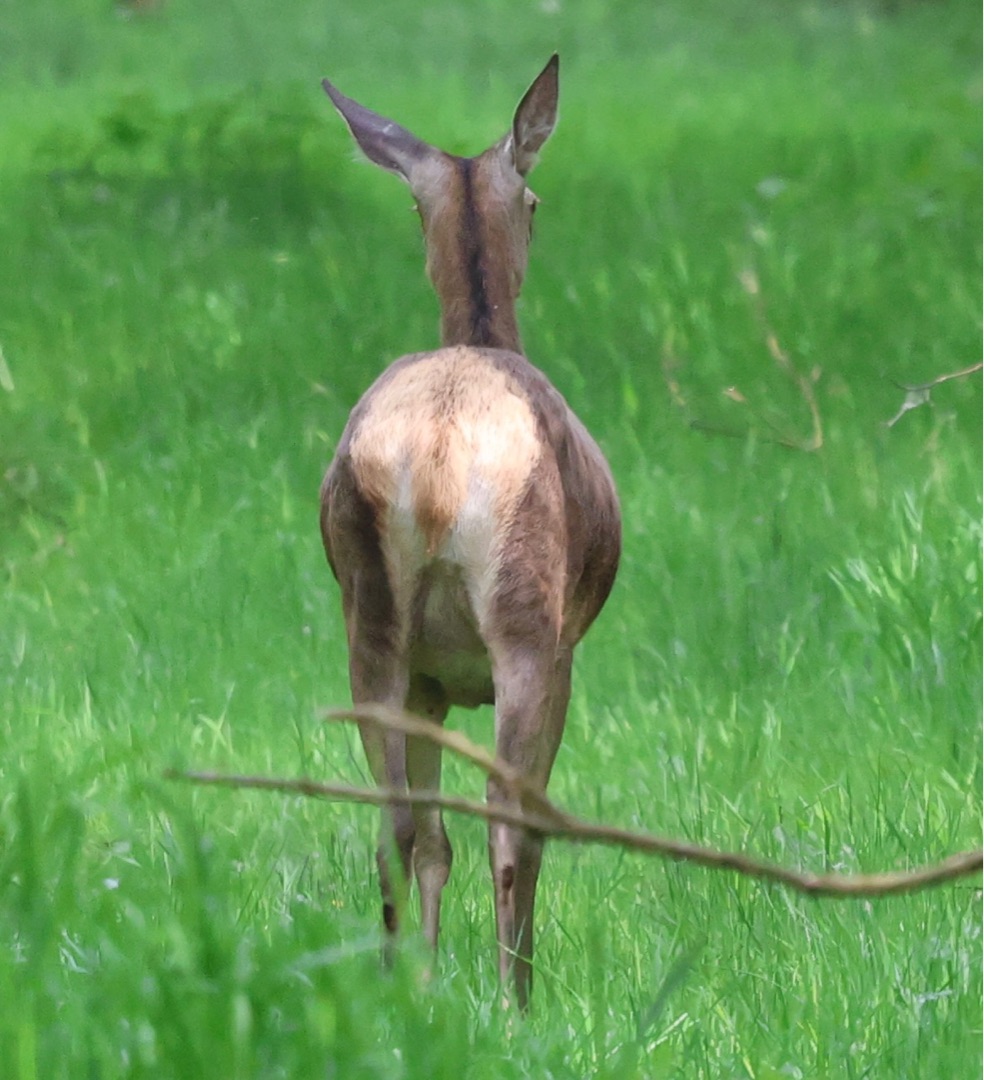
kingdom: Animalia
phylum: Chordata
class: Mammalia
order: Artiodactyla
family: Cervidae
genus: Cervus
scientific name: Cervus elaphus
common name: Krondyr
